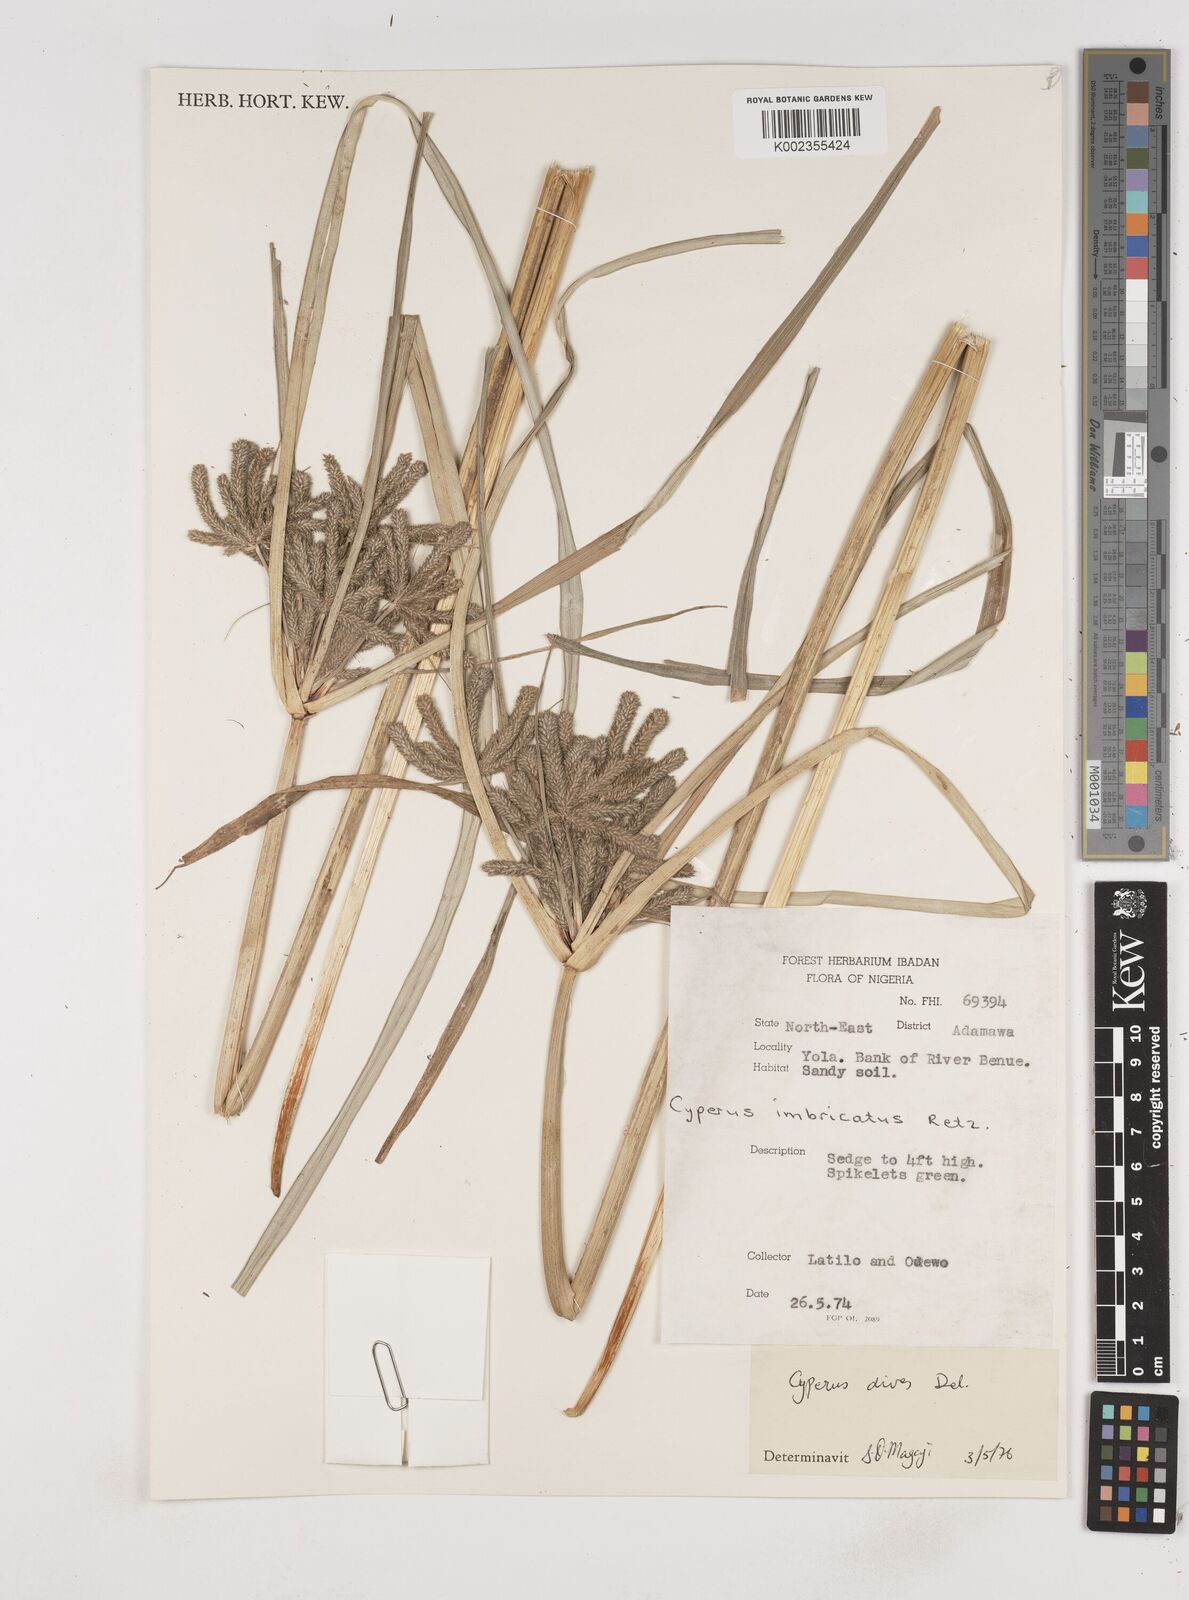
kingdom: Plantae
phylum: Tracheophyta
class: Liliopsida
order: Poales
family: Cyperaceae
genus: Cyperus
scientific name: Cyperus imbricatus
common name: Shingle flatsedge
